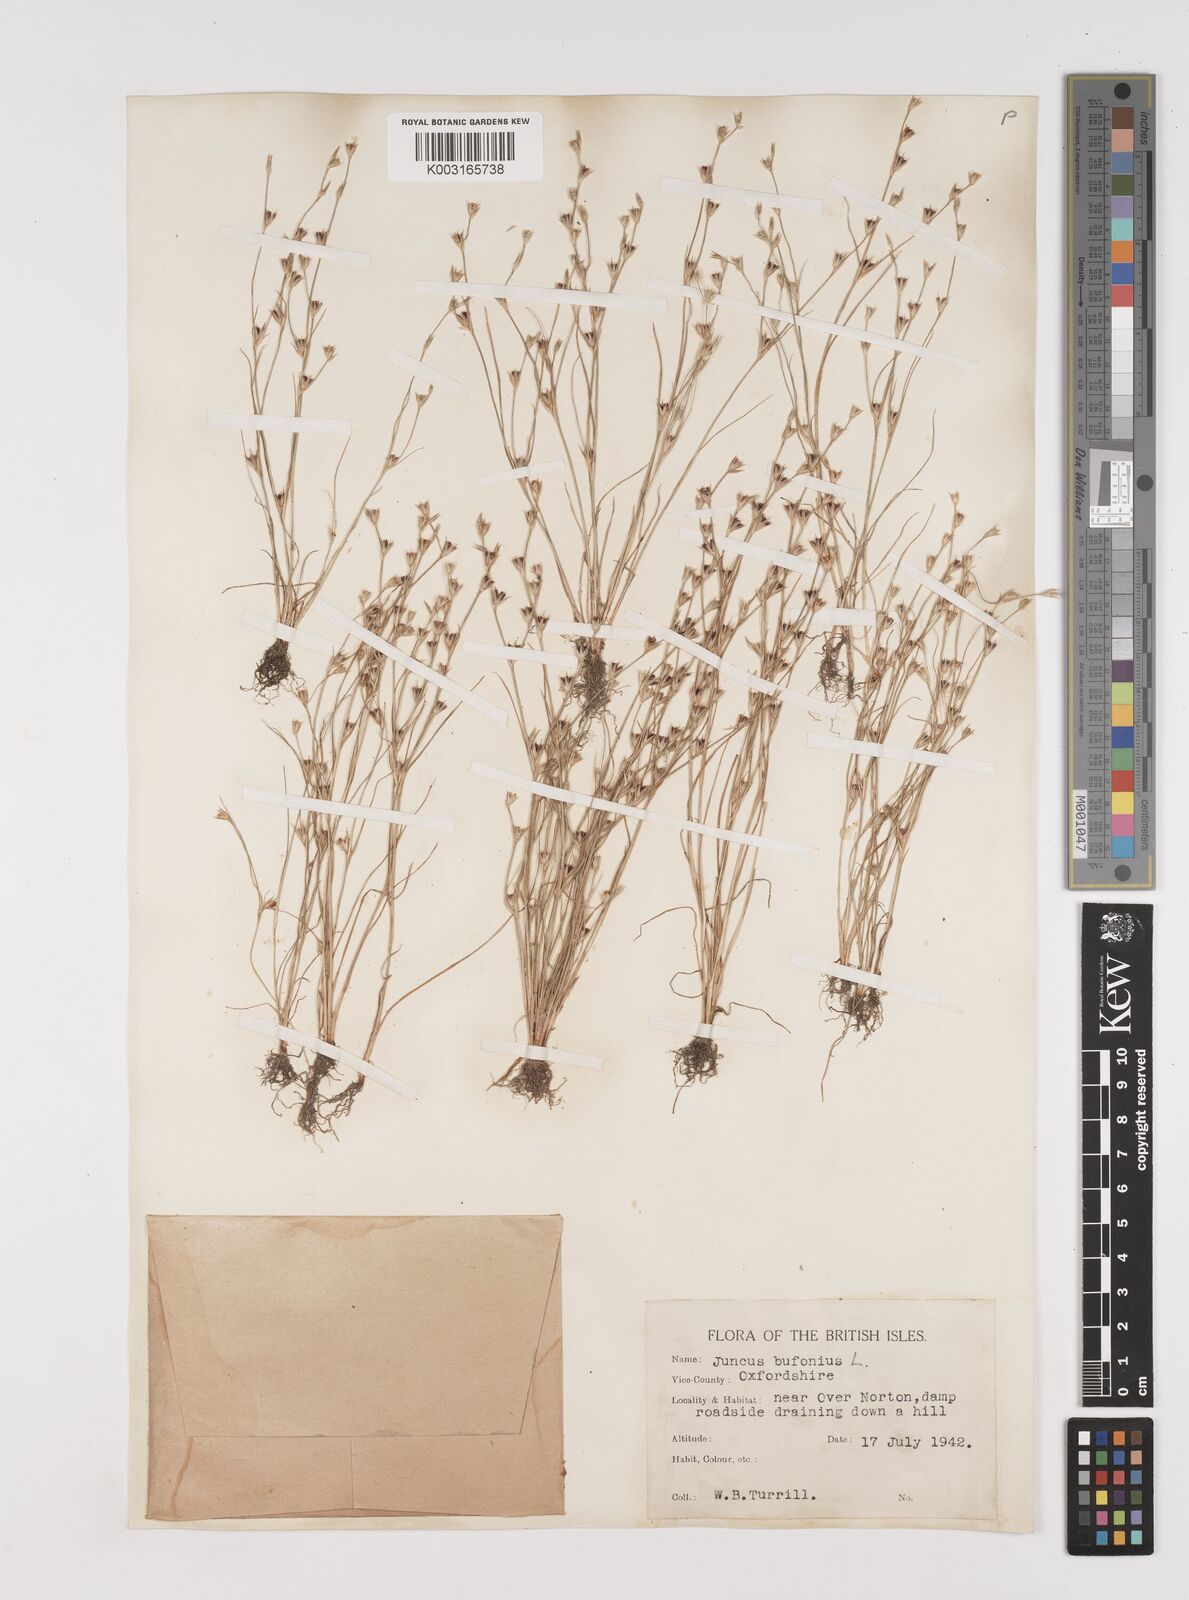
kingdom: Plantae
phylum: Tracheophyta
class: Liliopsida
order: Poales
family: Juncaceae
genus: Juncus
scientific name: Juncus bufonius
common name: Toad rush
